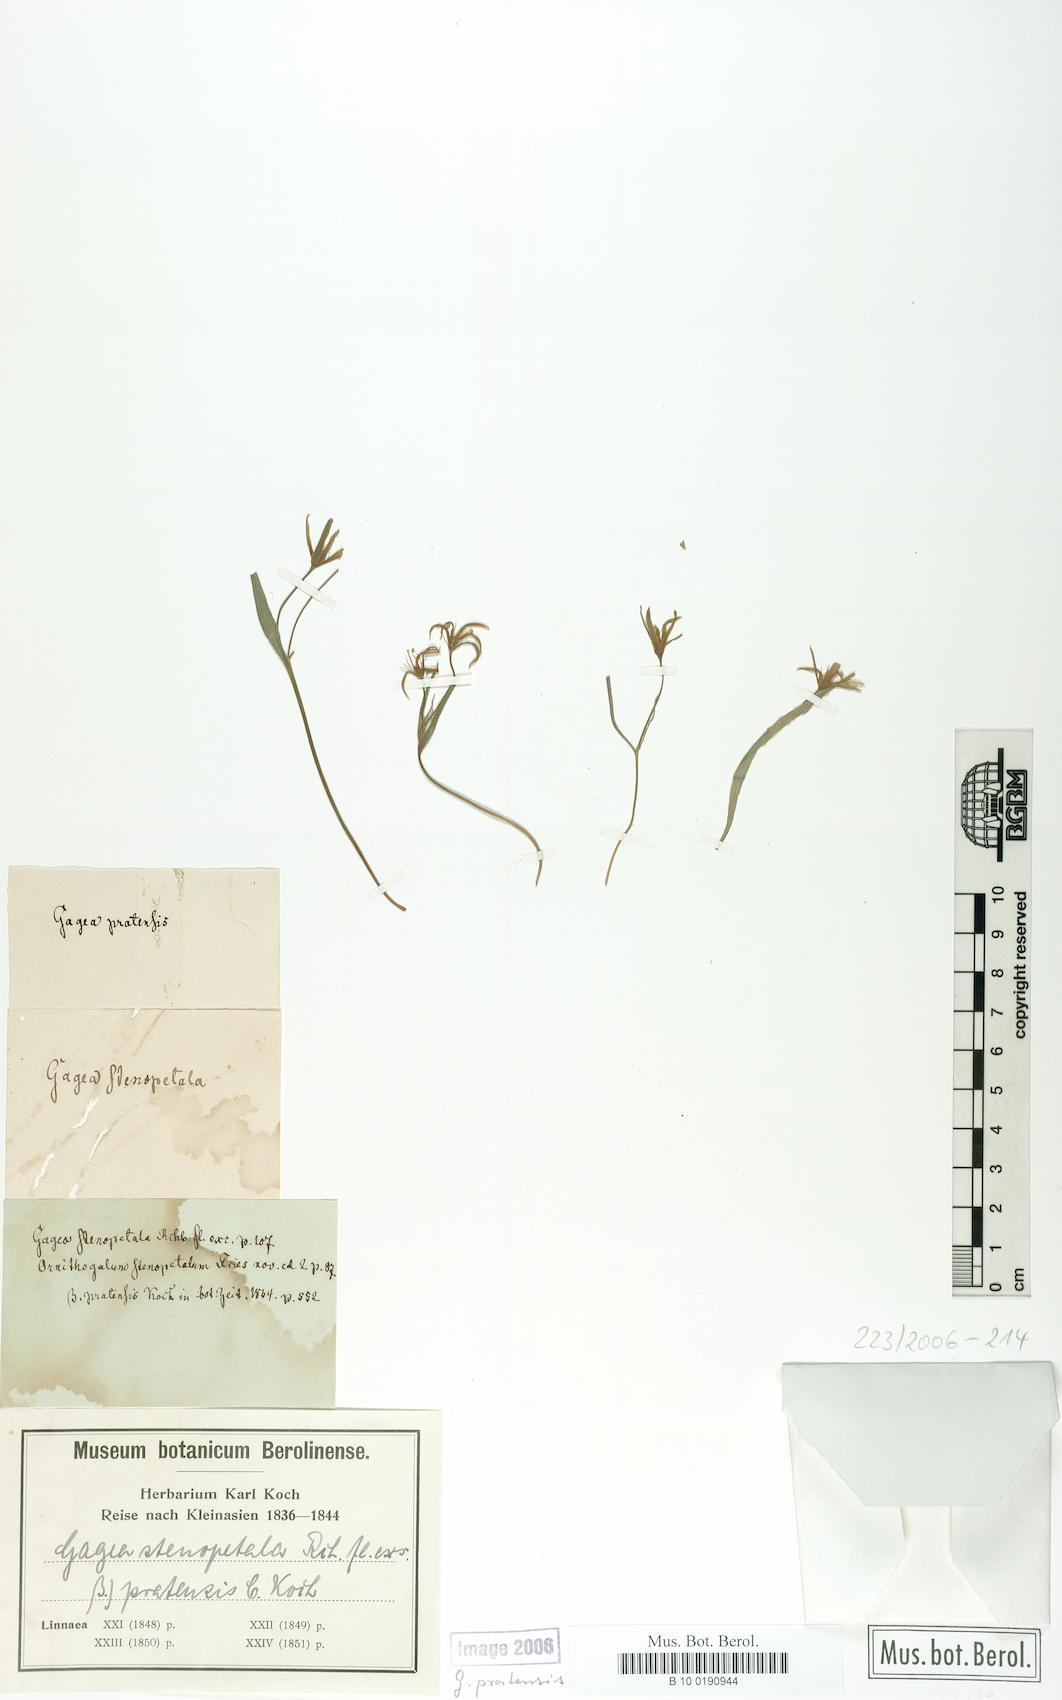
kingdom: Plantae
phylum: Tracheophyta
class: Liliopsida
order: Liliales
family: Liliaceae
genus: Gagea
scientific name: Gagea pratensis
